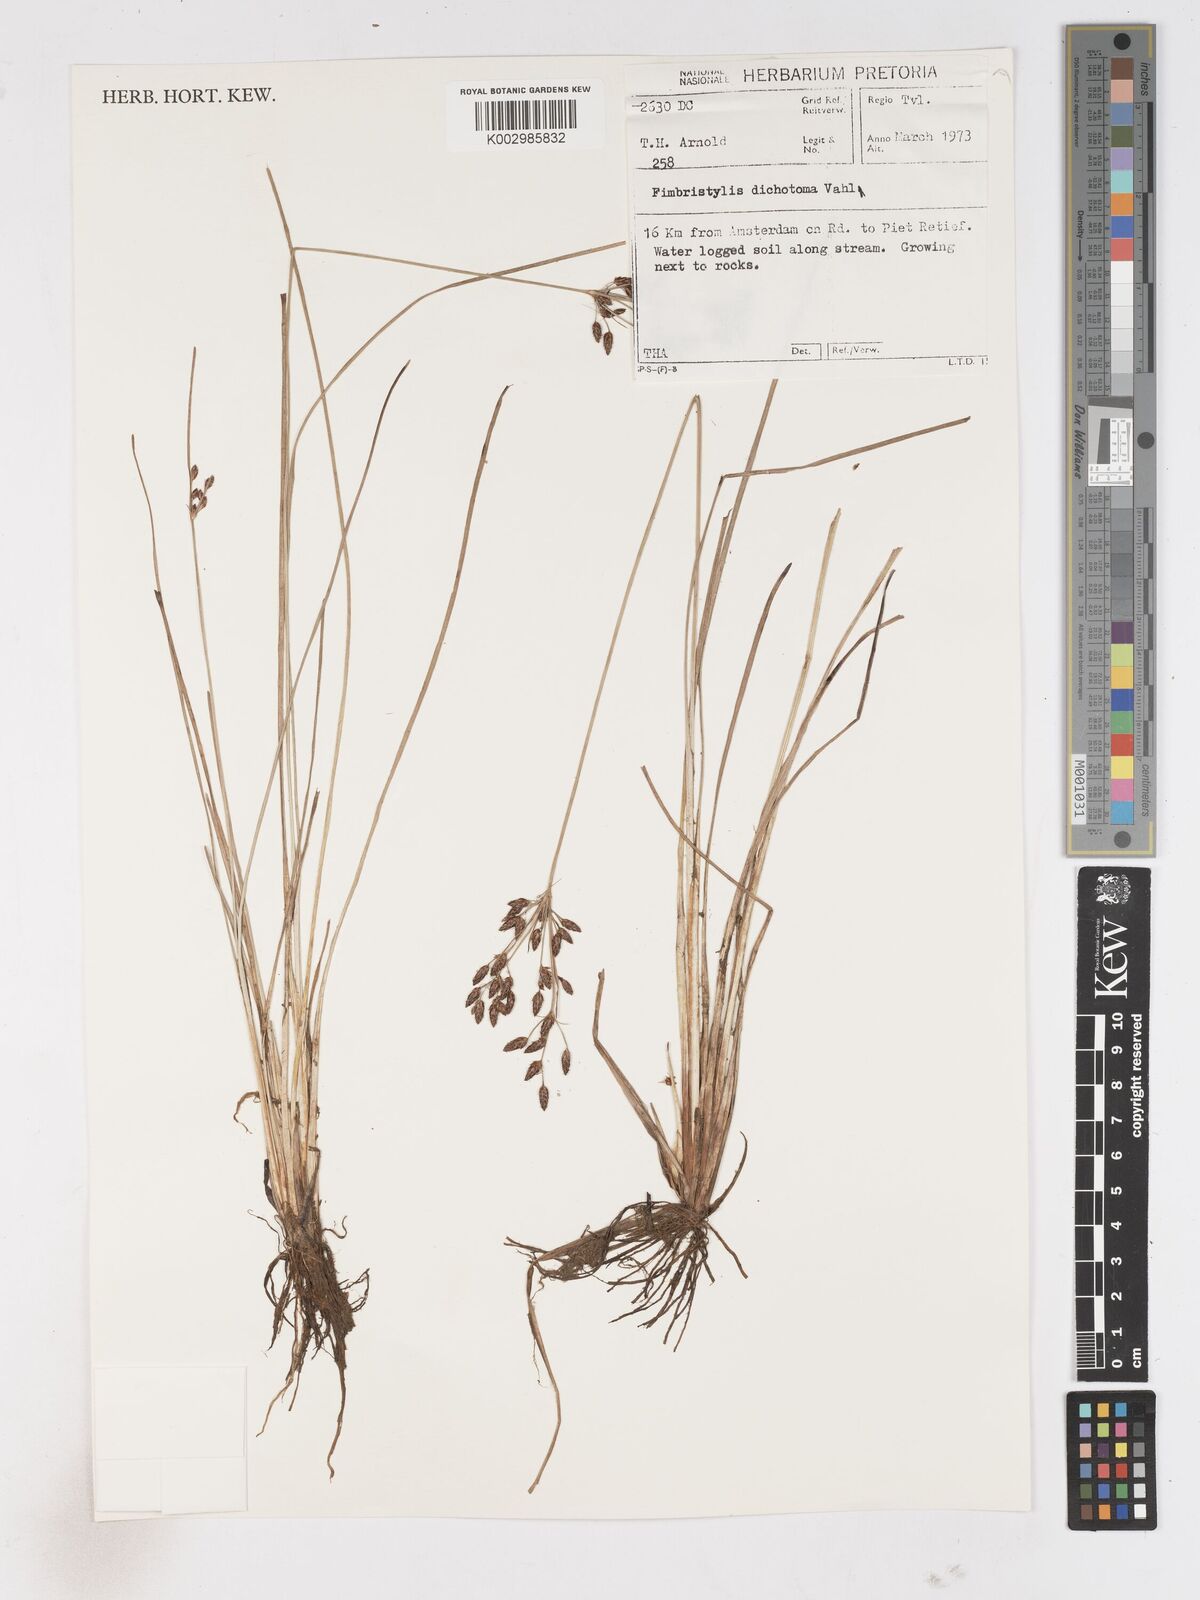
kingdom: Plantae
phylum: Tracheophyta
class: Liliopsida
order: Poales
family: Cyperaceae
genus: Fimbristylis
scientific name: Fimbristylis dichotoma
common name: Forked fimbry
